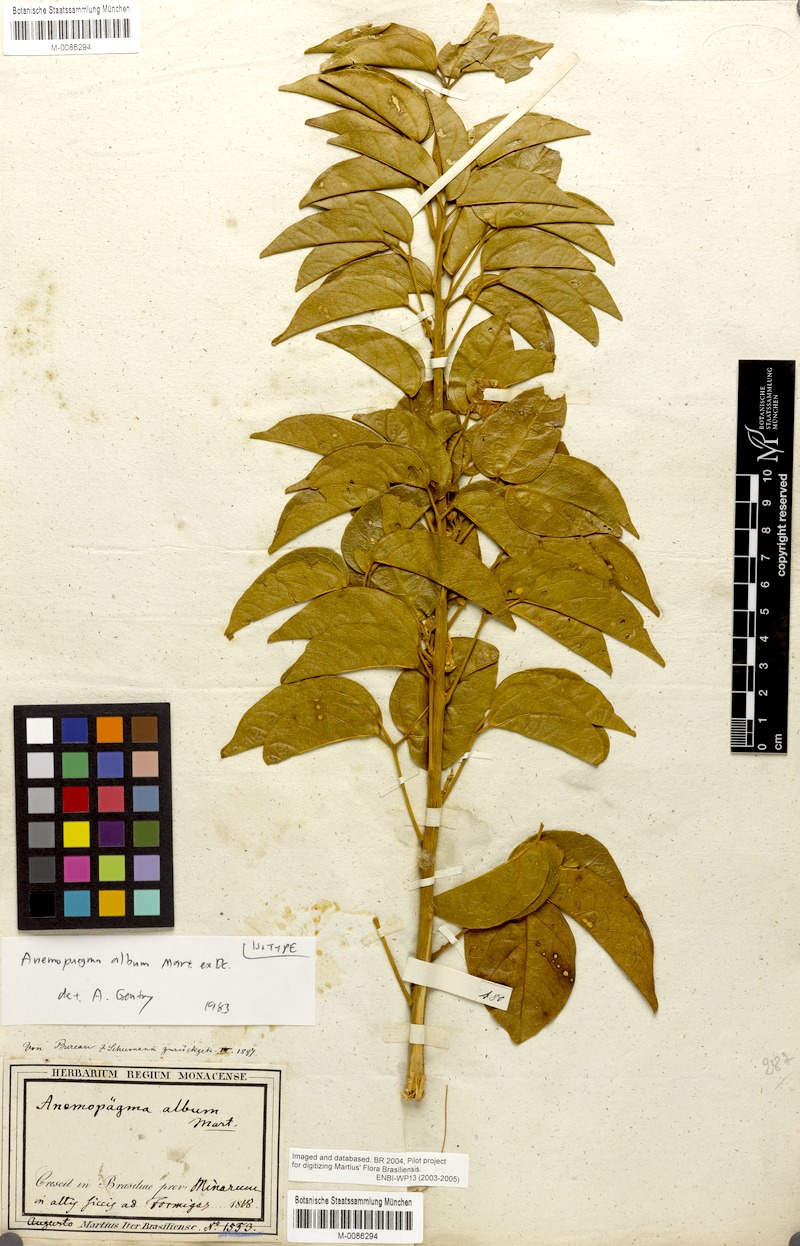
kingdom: Plantae
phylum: Tracheophyta
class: Magnoliopsida
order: Lamiales
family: Bignoniaceae
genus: Anemopaegma
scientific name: Anemopaegma album
